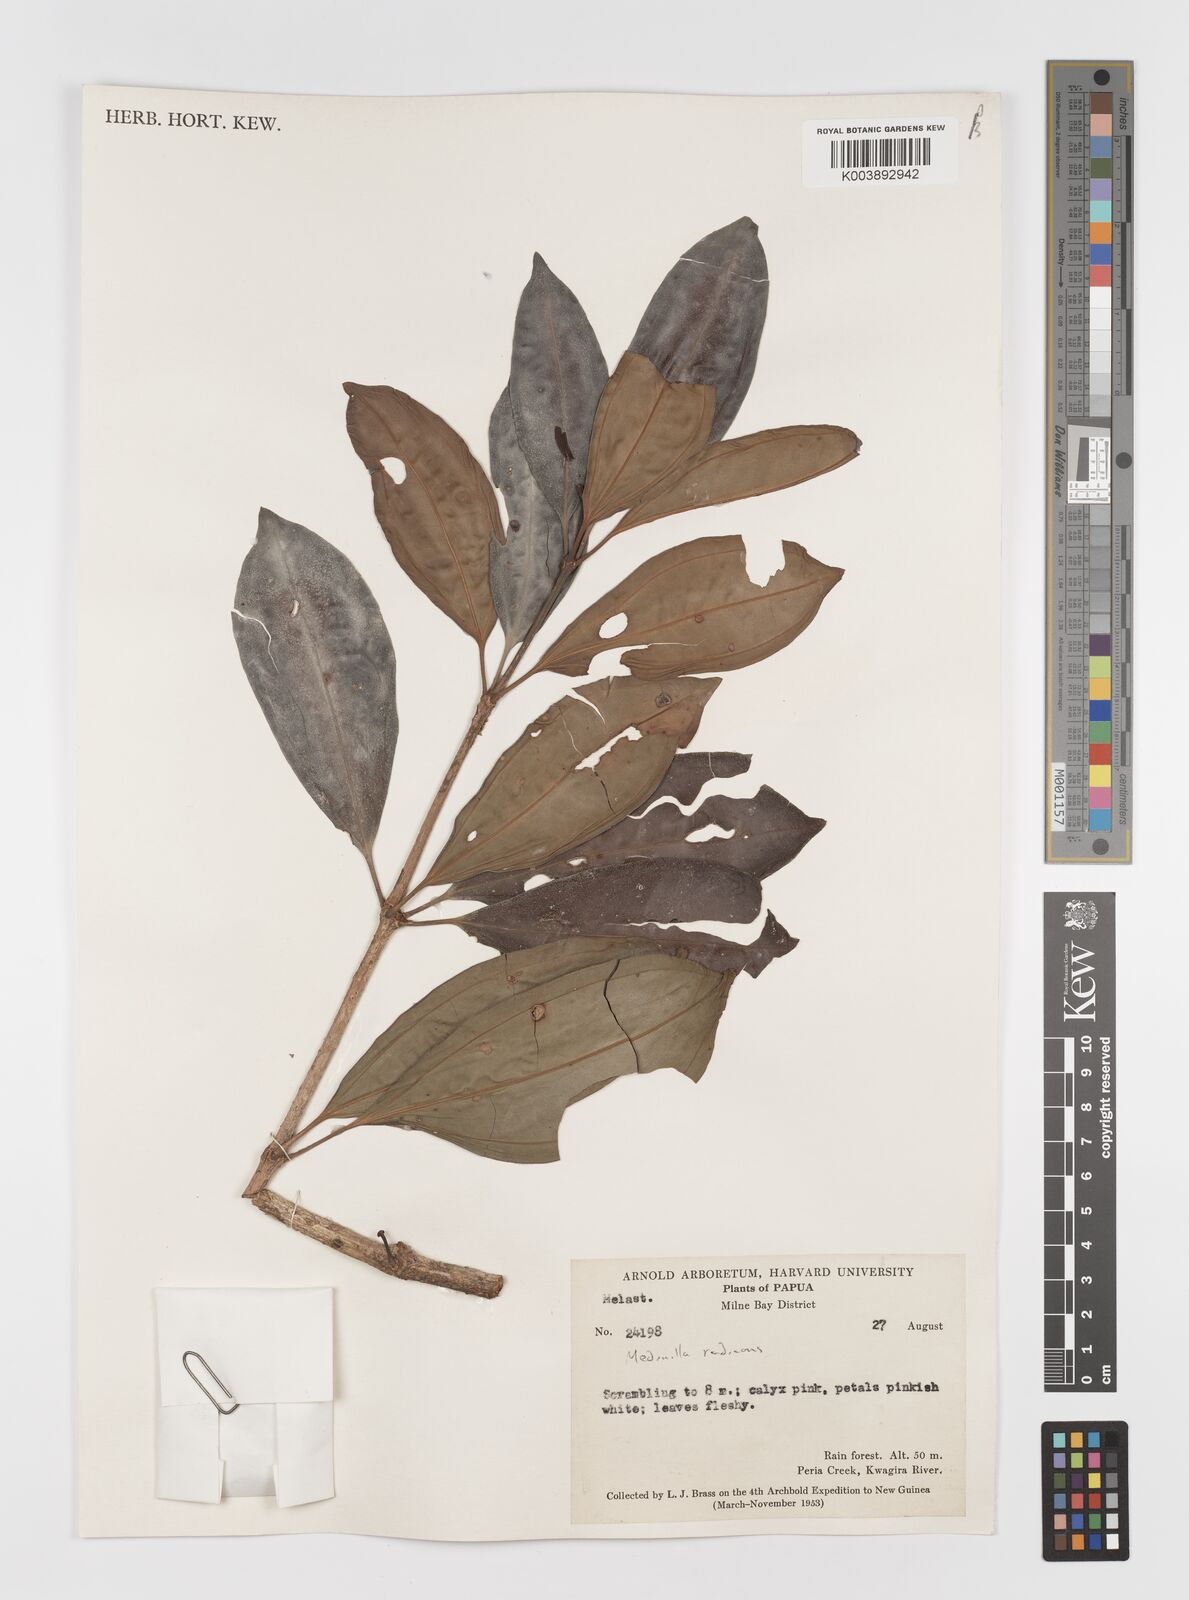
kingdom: Plantae
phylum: Tracheophyta
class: Magnoliopsida
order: Myrtales
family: Melastomataceae
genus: Medinilla
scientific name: Medinilla beddomei
